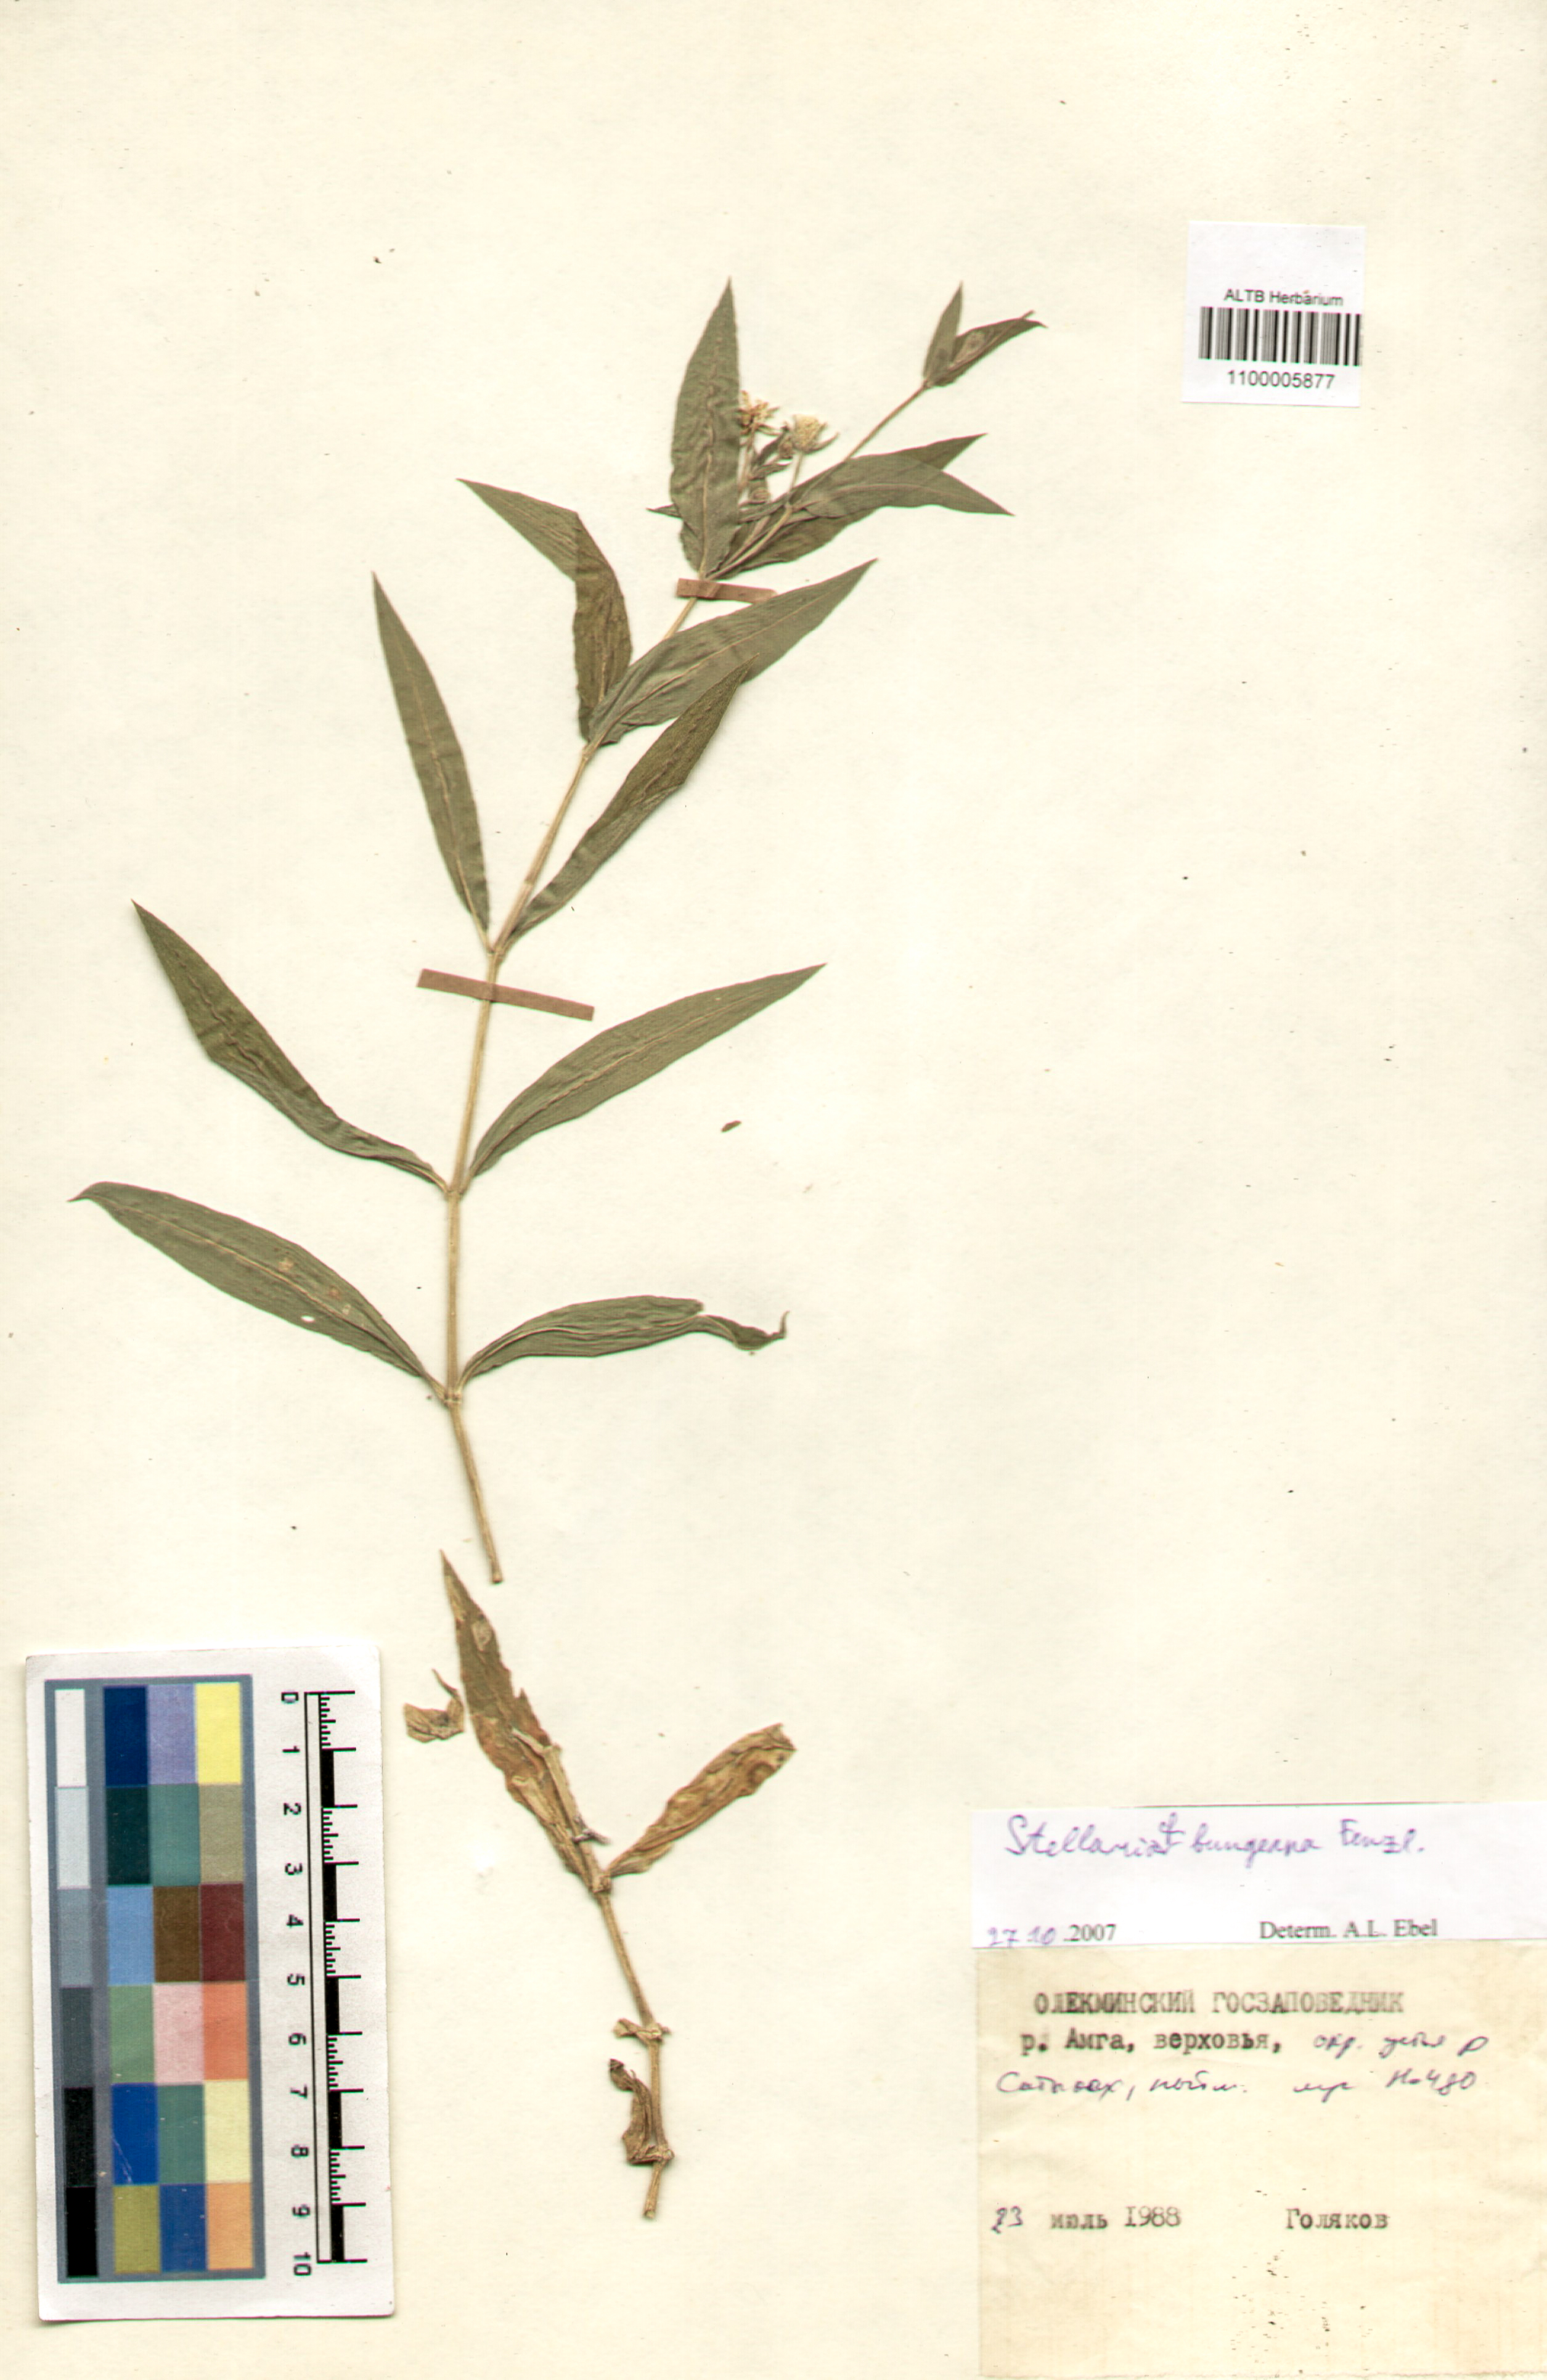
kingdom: Plantae
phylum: Tracheophyta
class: Magnoliopsida
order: Caryophyllales
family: Caryophyllaceae
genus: Stellaria
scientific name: Stellaria bungeana
